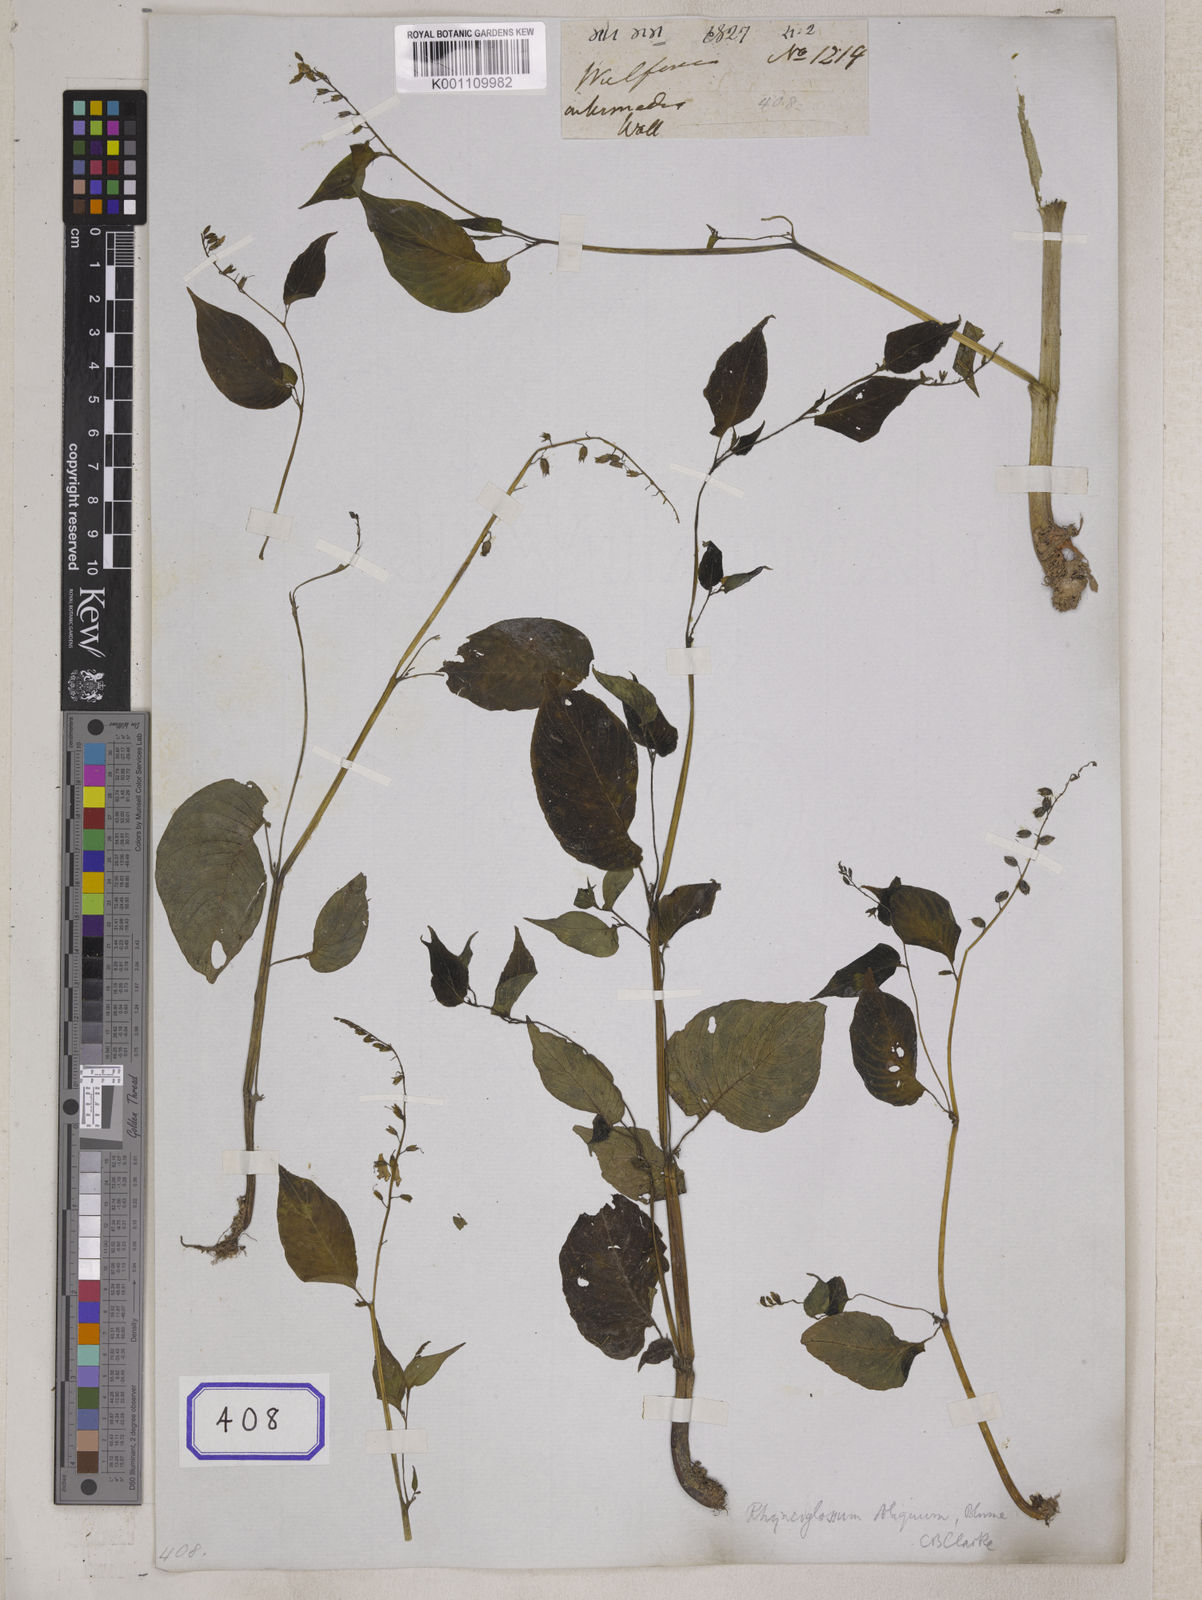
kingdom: Plantae
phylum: Tracheophyta
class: Magnoliopsida
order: Lamiales
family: Gesneriaceae
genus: Rhynchoglossum
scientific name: Rhynchoglossum
